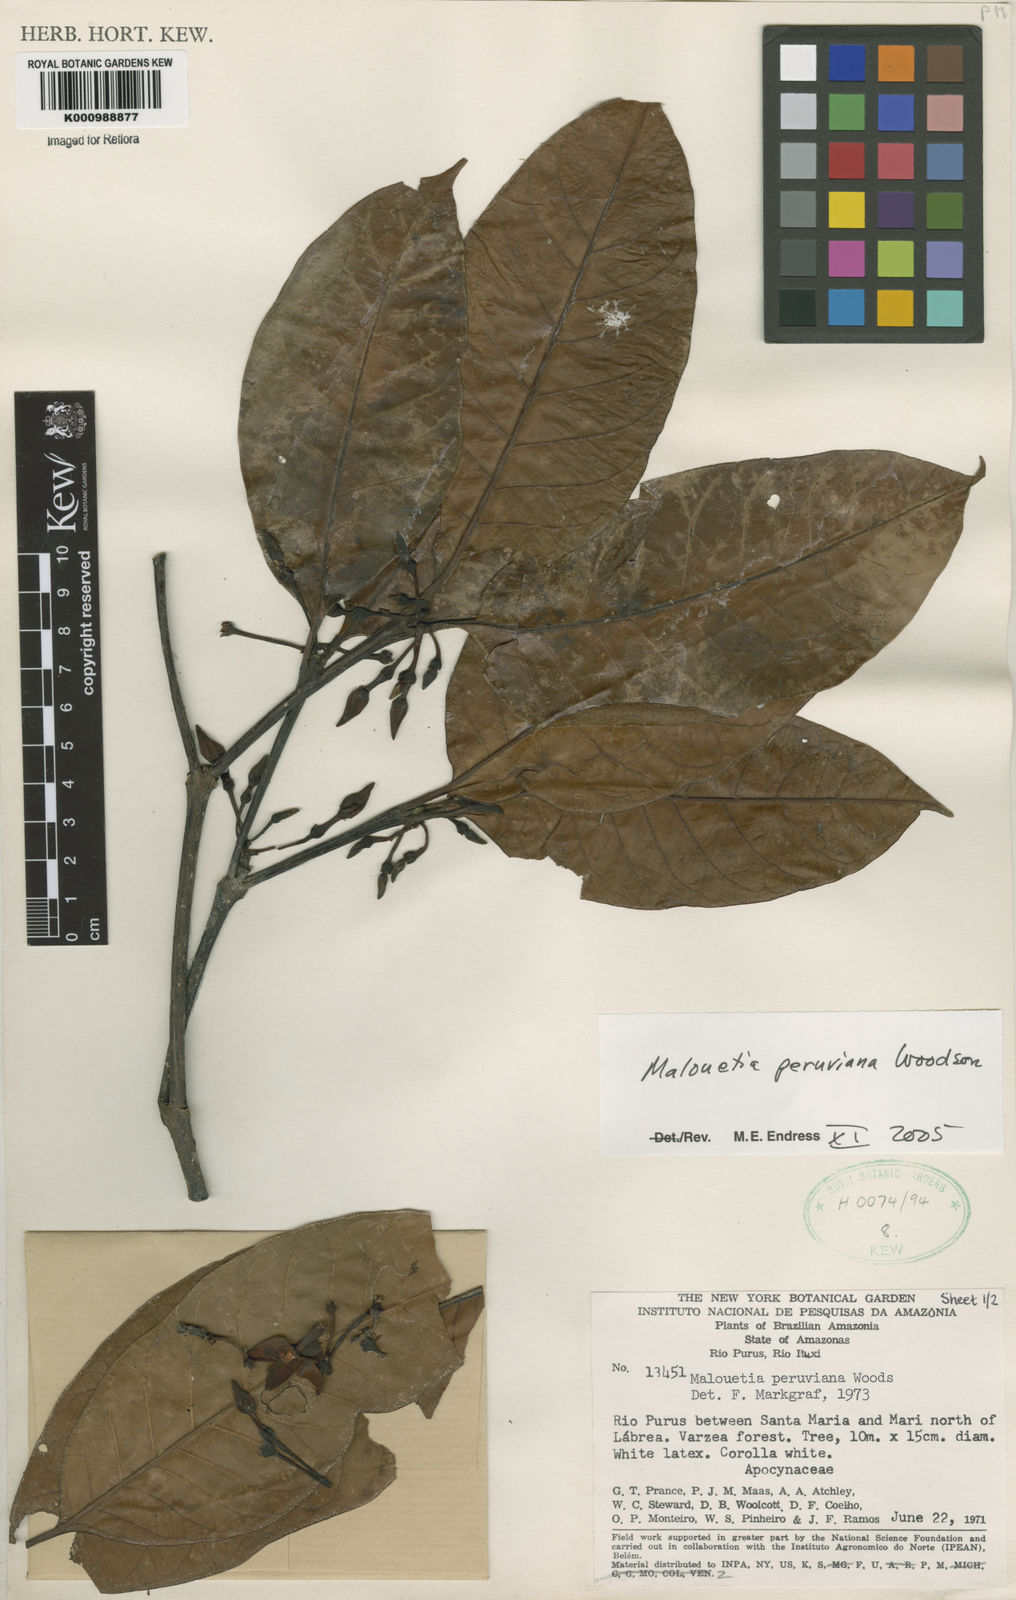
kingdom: Plantae
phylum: Tracheophyta
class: Magnoliopsida
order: Gentianales
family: Apocynaceae
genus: Malouetia
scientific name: Malouetia tamaquarina
